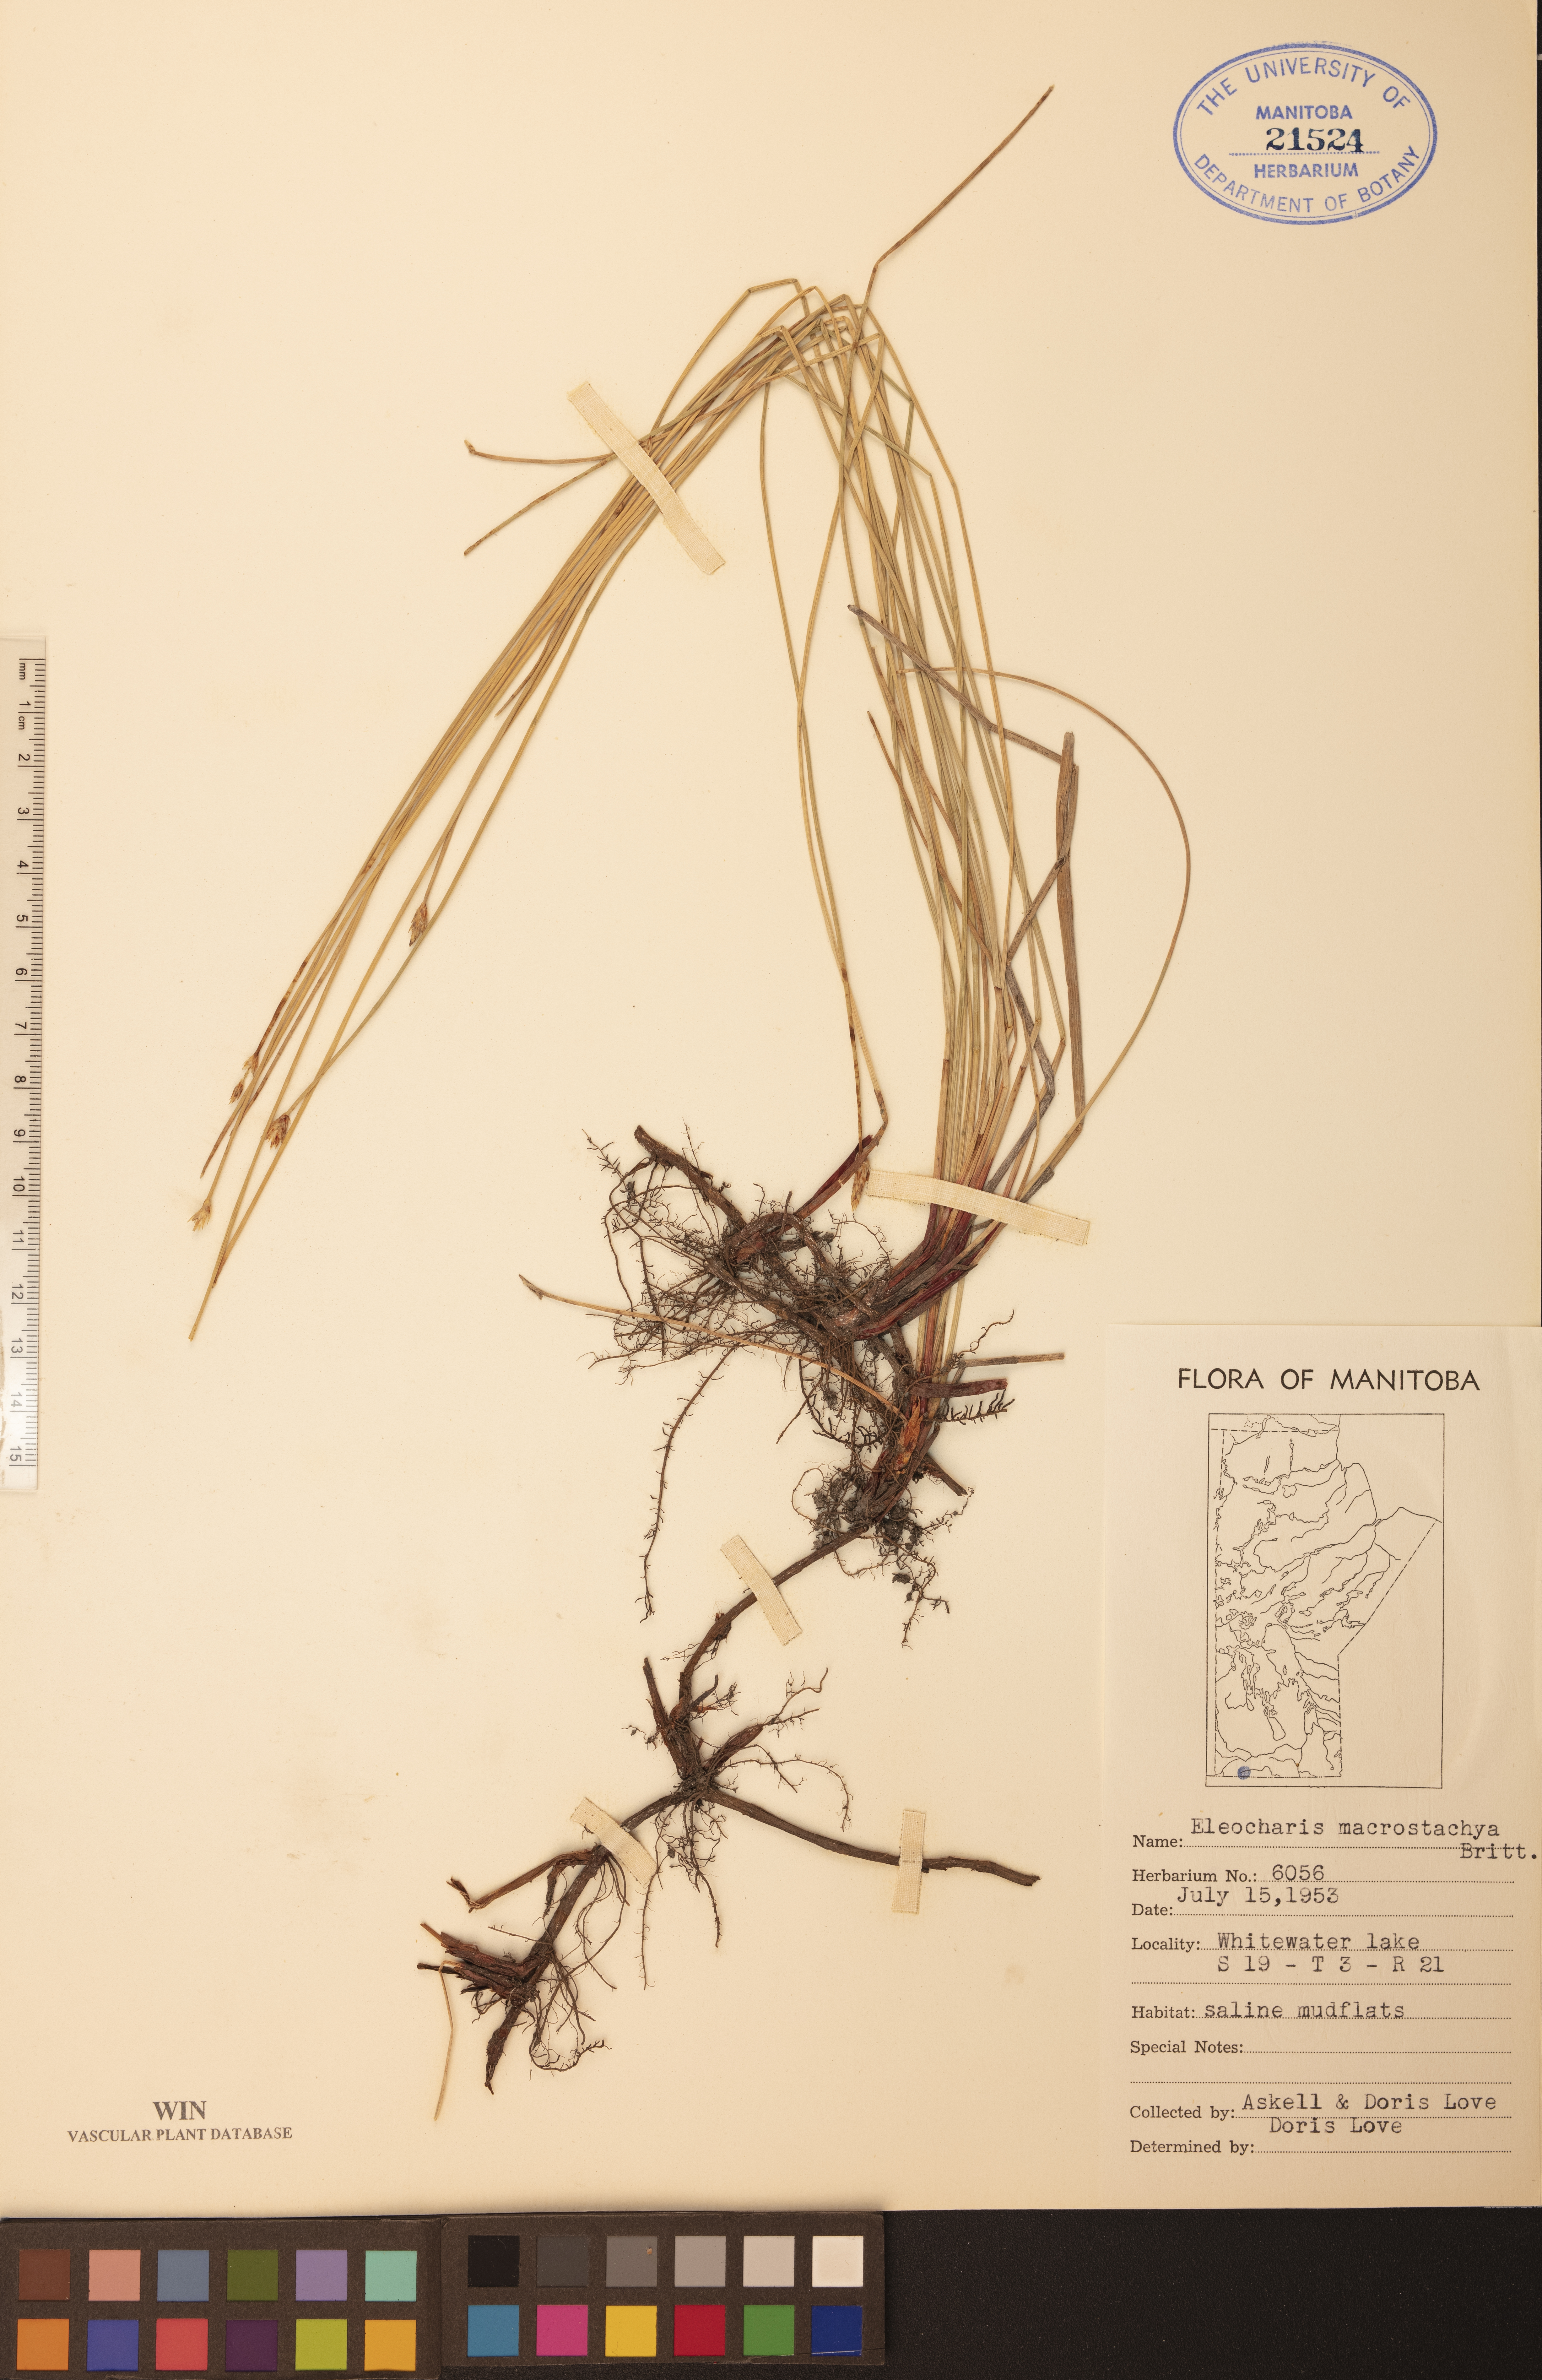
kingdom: Plantae
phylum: Tracheophyta
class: Liliopsida
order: Poales
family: Cyperaceae
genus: Eleocharis
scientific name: Eleocharis macrostachya
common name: Pale spikerush
